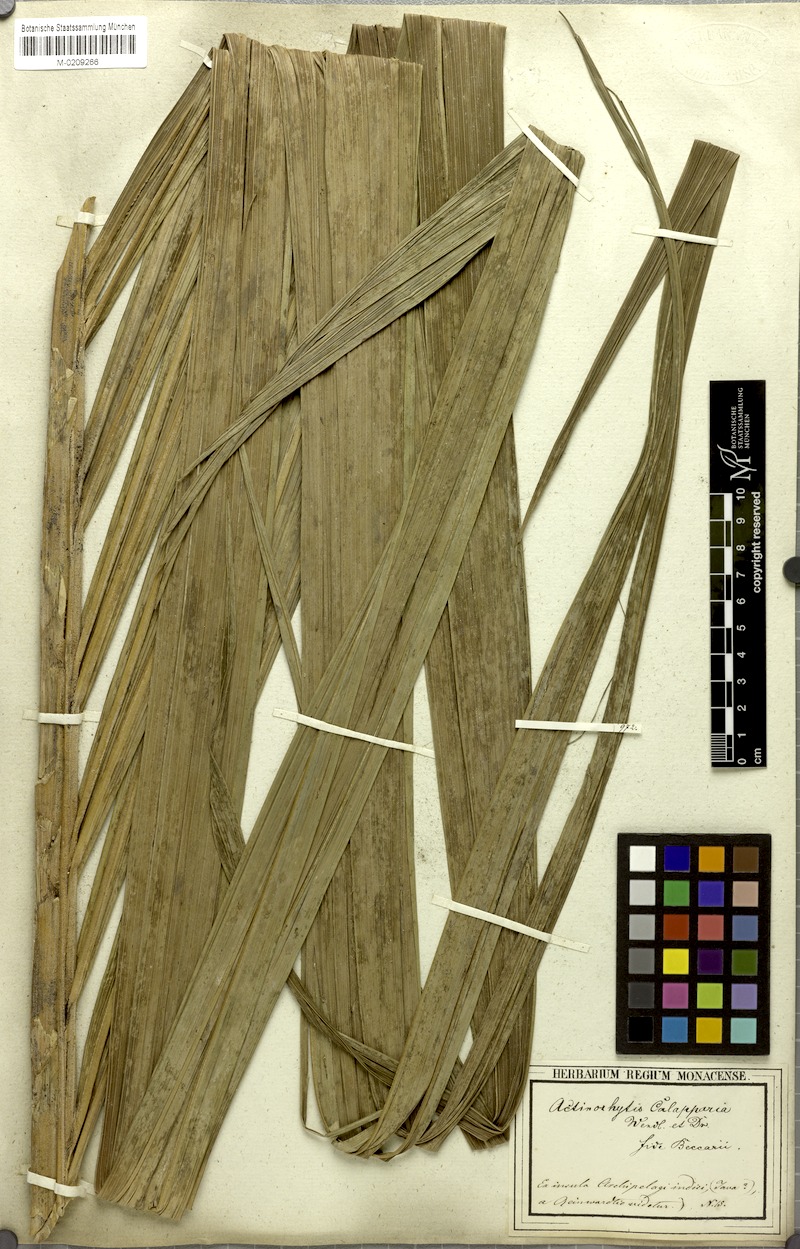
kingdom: Plantae
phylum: Tracheophyta
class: Liliopsida
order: Arecales
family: Arecaceae
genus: Actinorhytis
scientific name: Actinorhytis calapparia
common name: Calappa palm
